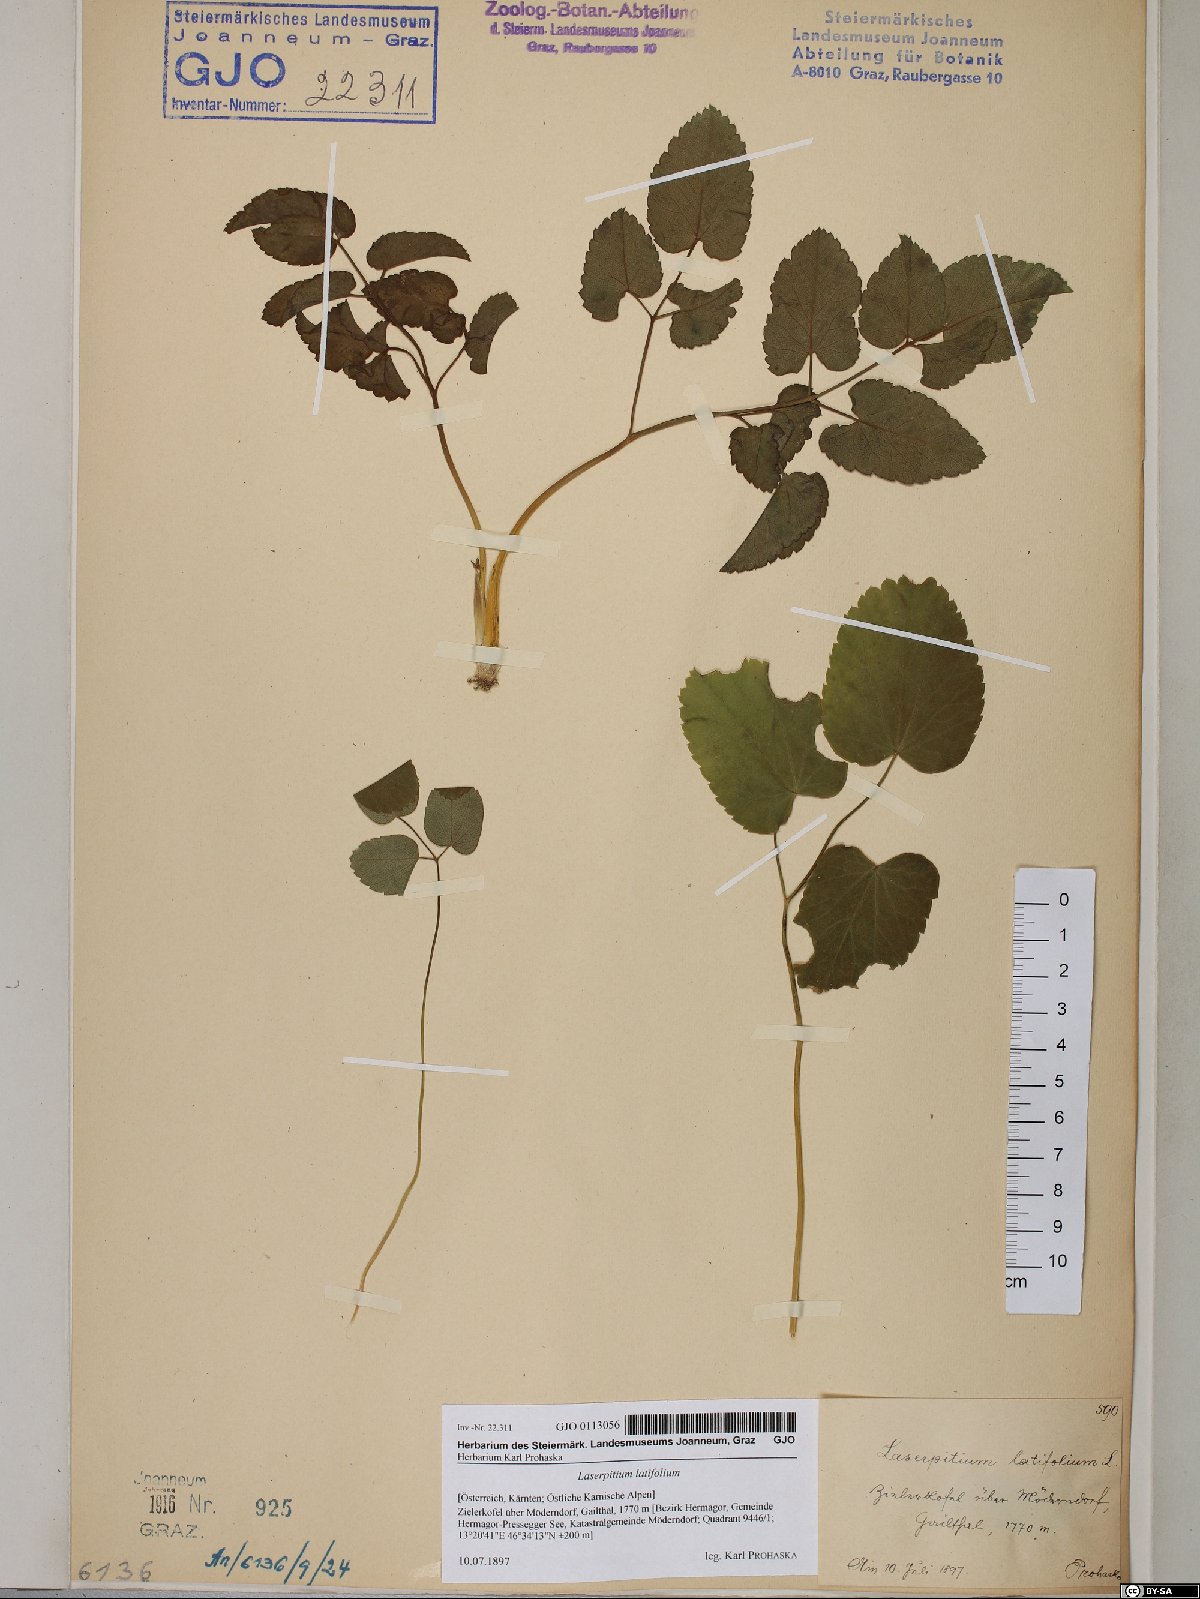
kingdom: Plantae
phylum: Tracheophyta
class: Magnoliopsida
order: Apiales
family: Apiaceae
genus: Laserpitium
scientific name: Laserpitium latifolium
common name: Broadleaf sermountain
